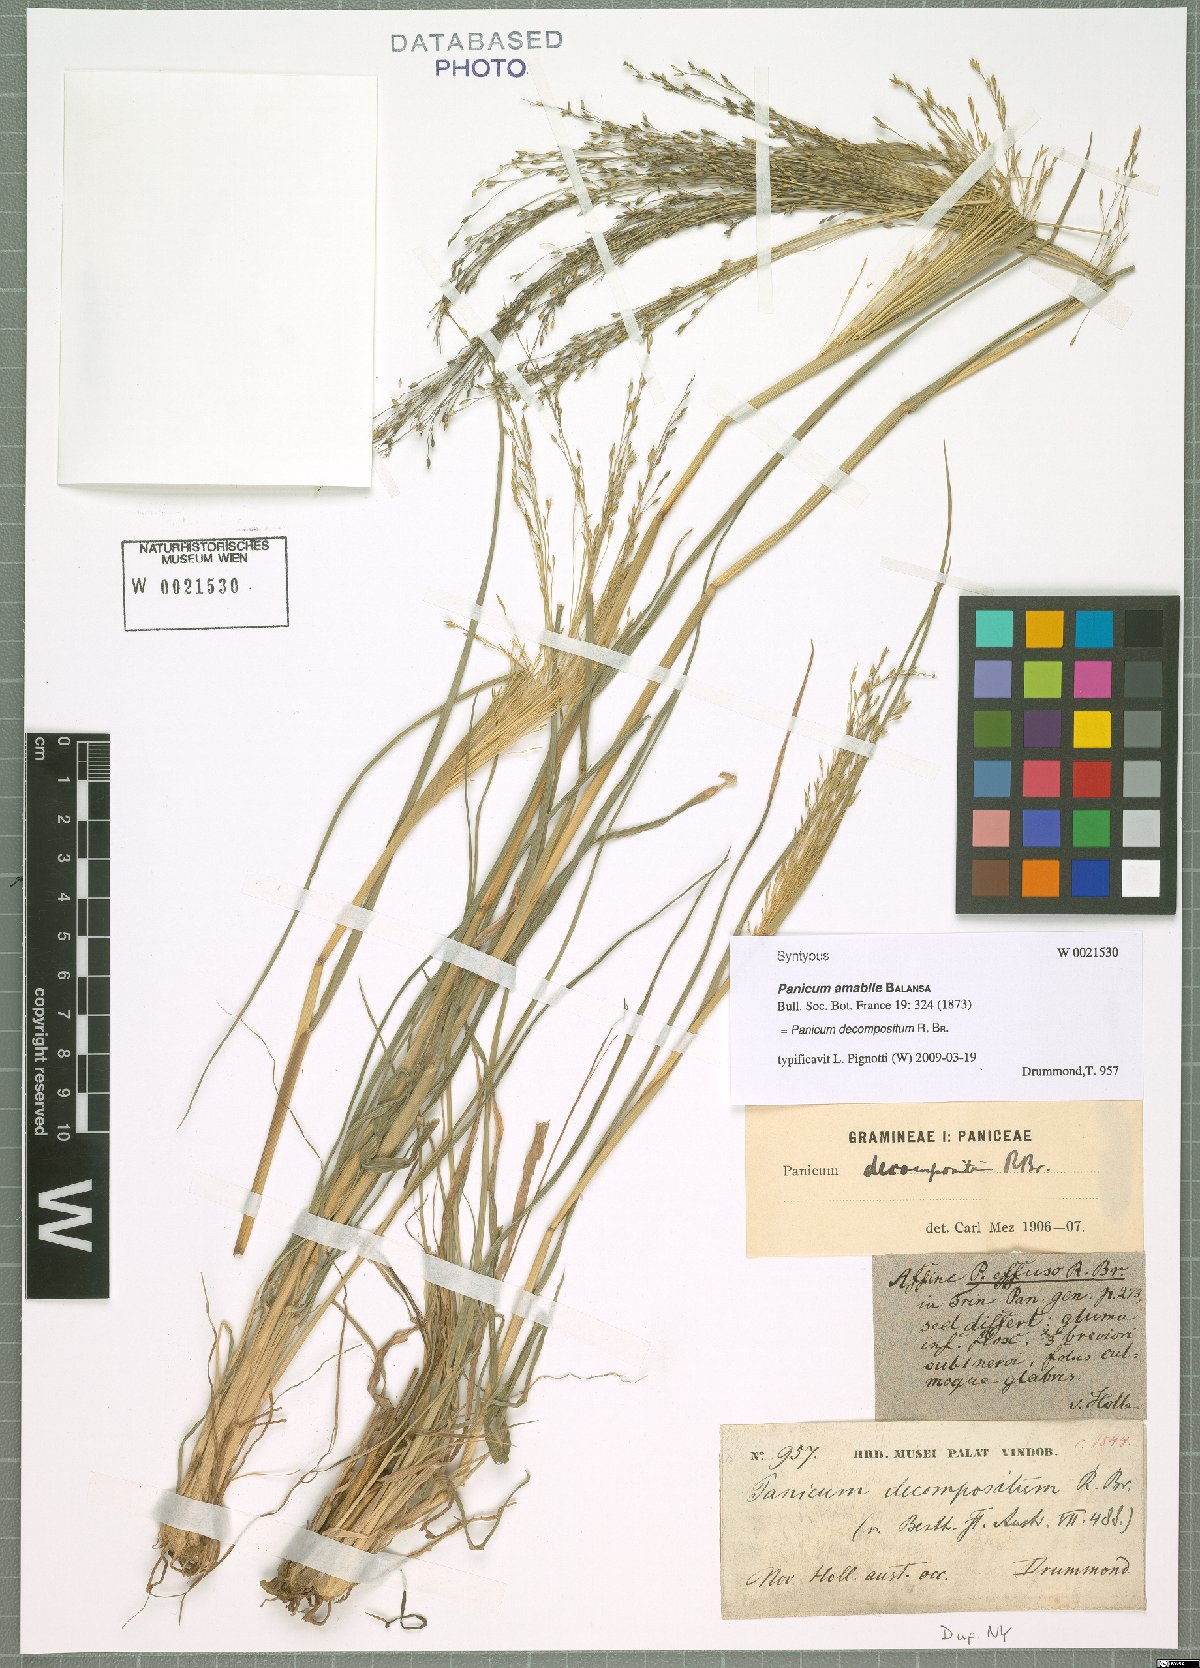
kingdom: Plantae
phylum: Tracheophyta
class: Liliopsida
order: Poales
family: Poaceae
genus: Panicum
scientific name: Panicum decompositum
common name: Australian millet
